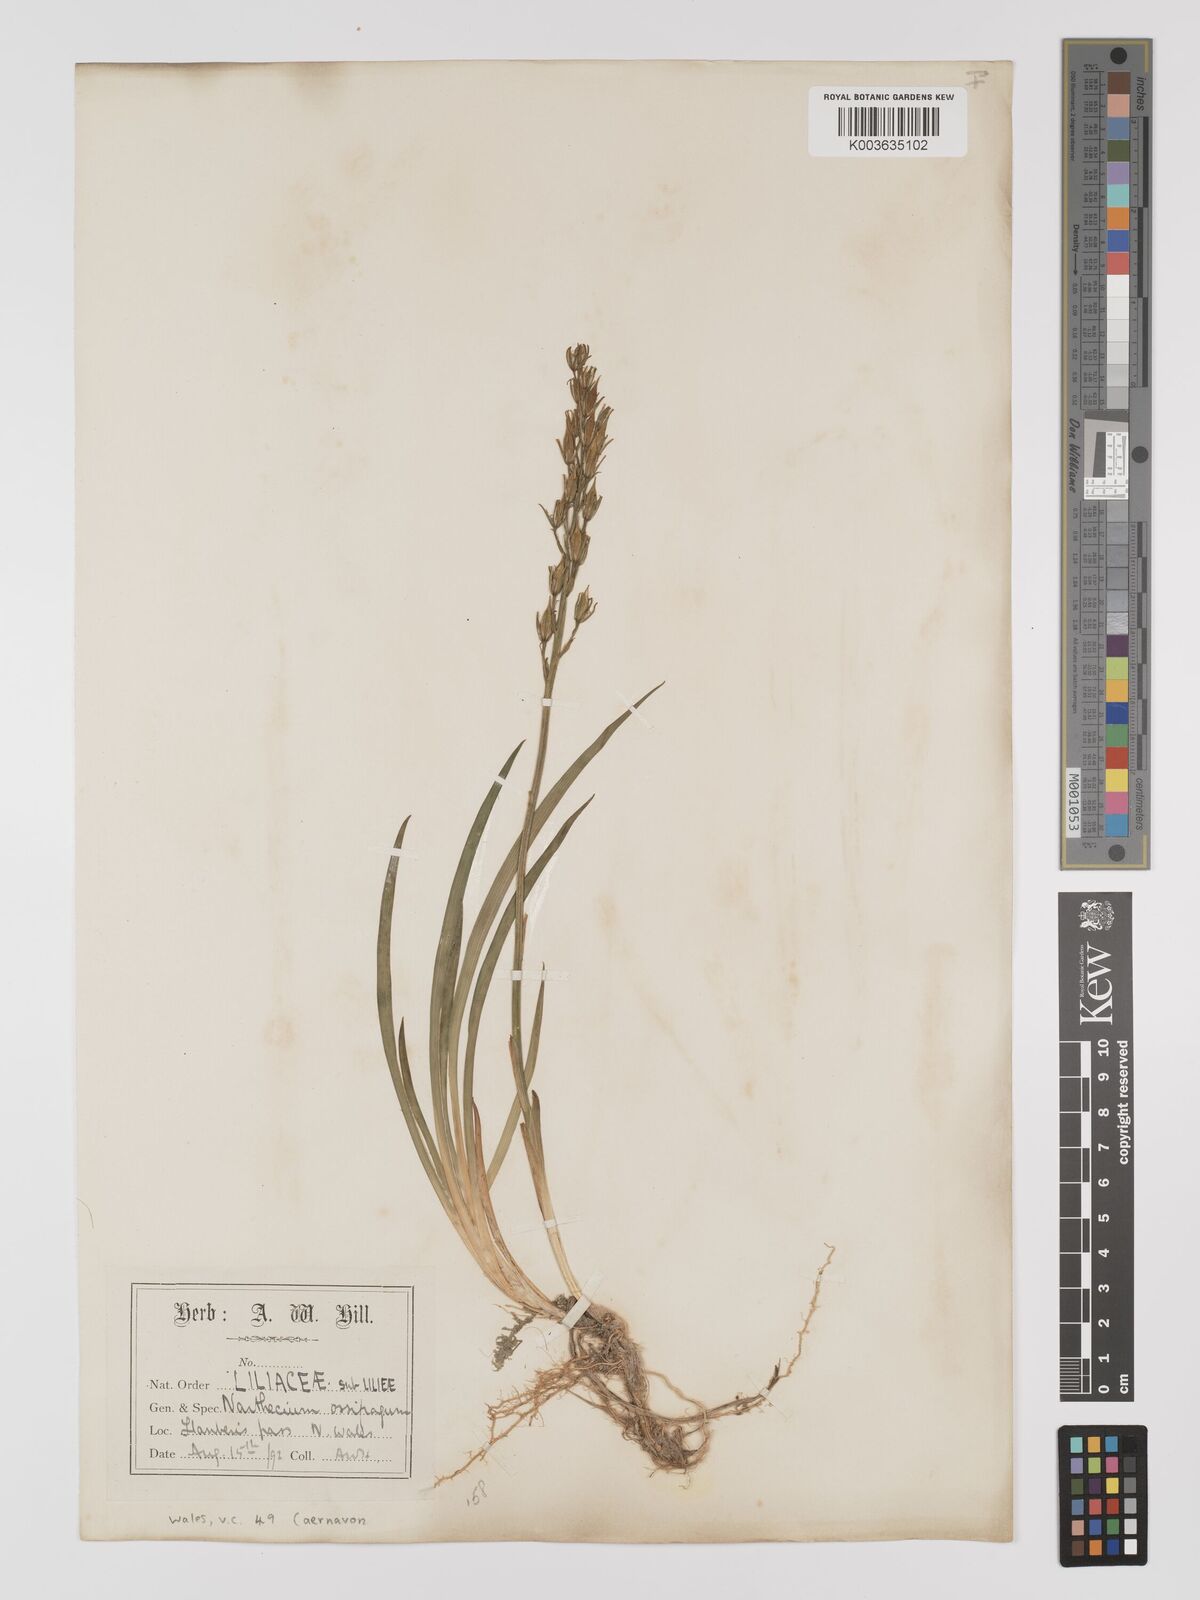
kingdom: Plantae
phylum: Tracheophyta
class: Liliopsida
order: Dioscoreales
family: Nartheciaceae
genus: Narthecium
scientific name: Narthecium
